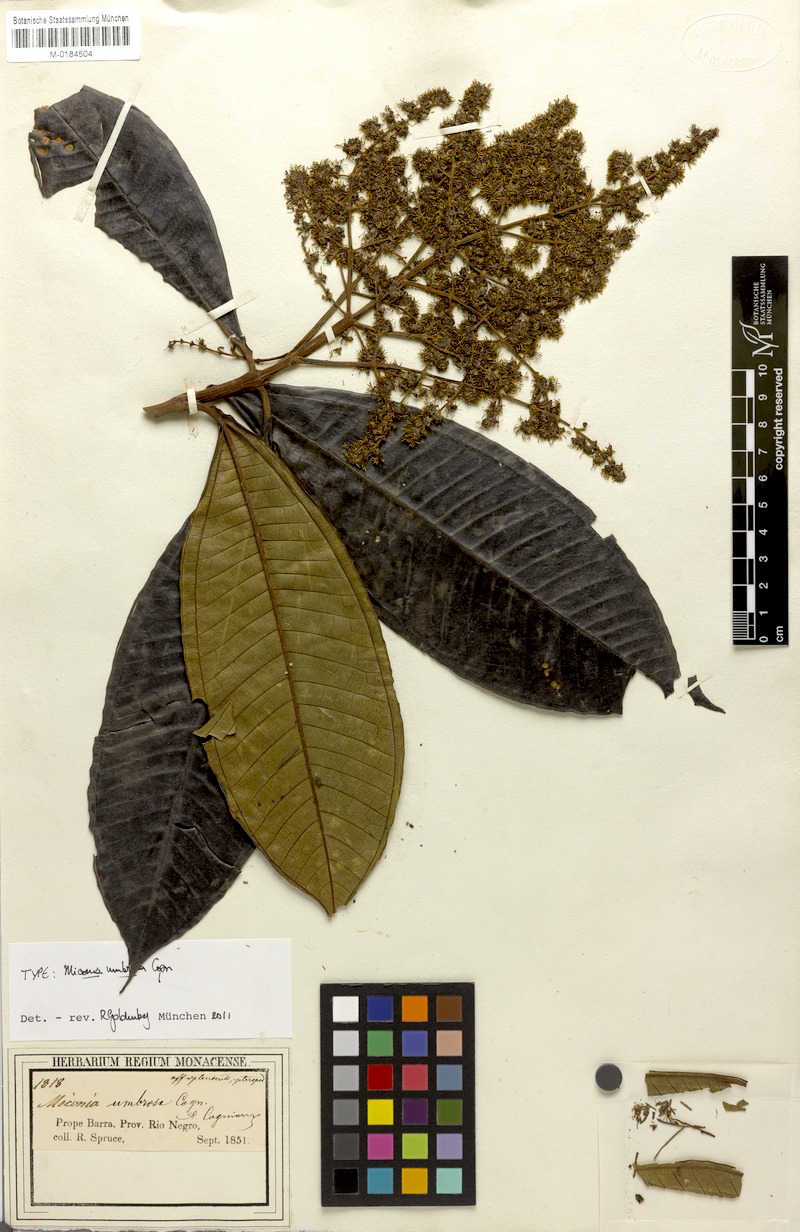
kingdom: Plantae
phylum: Tracheophyta
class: Magnoliopsida
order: Myrtales
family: Melastomataceae
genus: Miconia
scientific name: Miconia umbrosa
